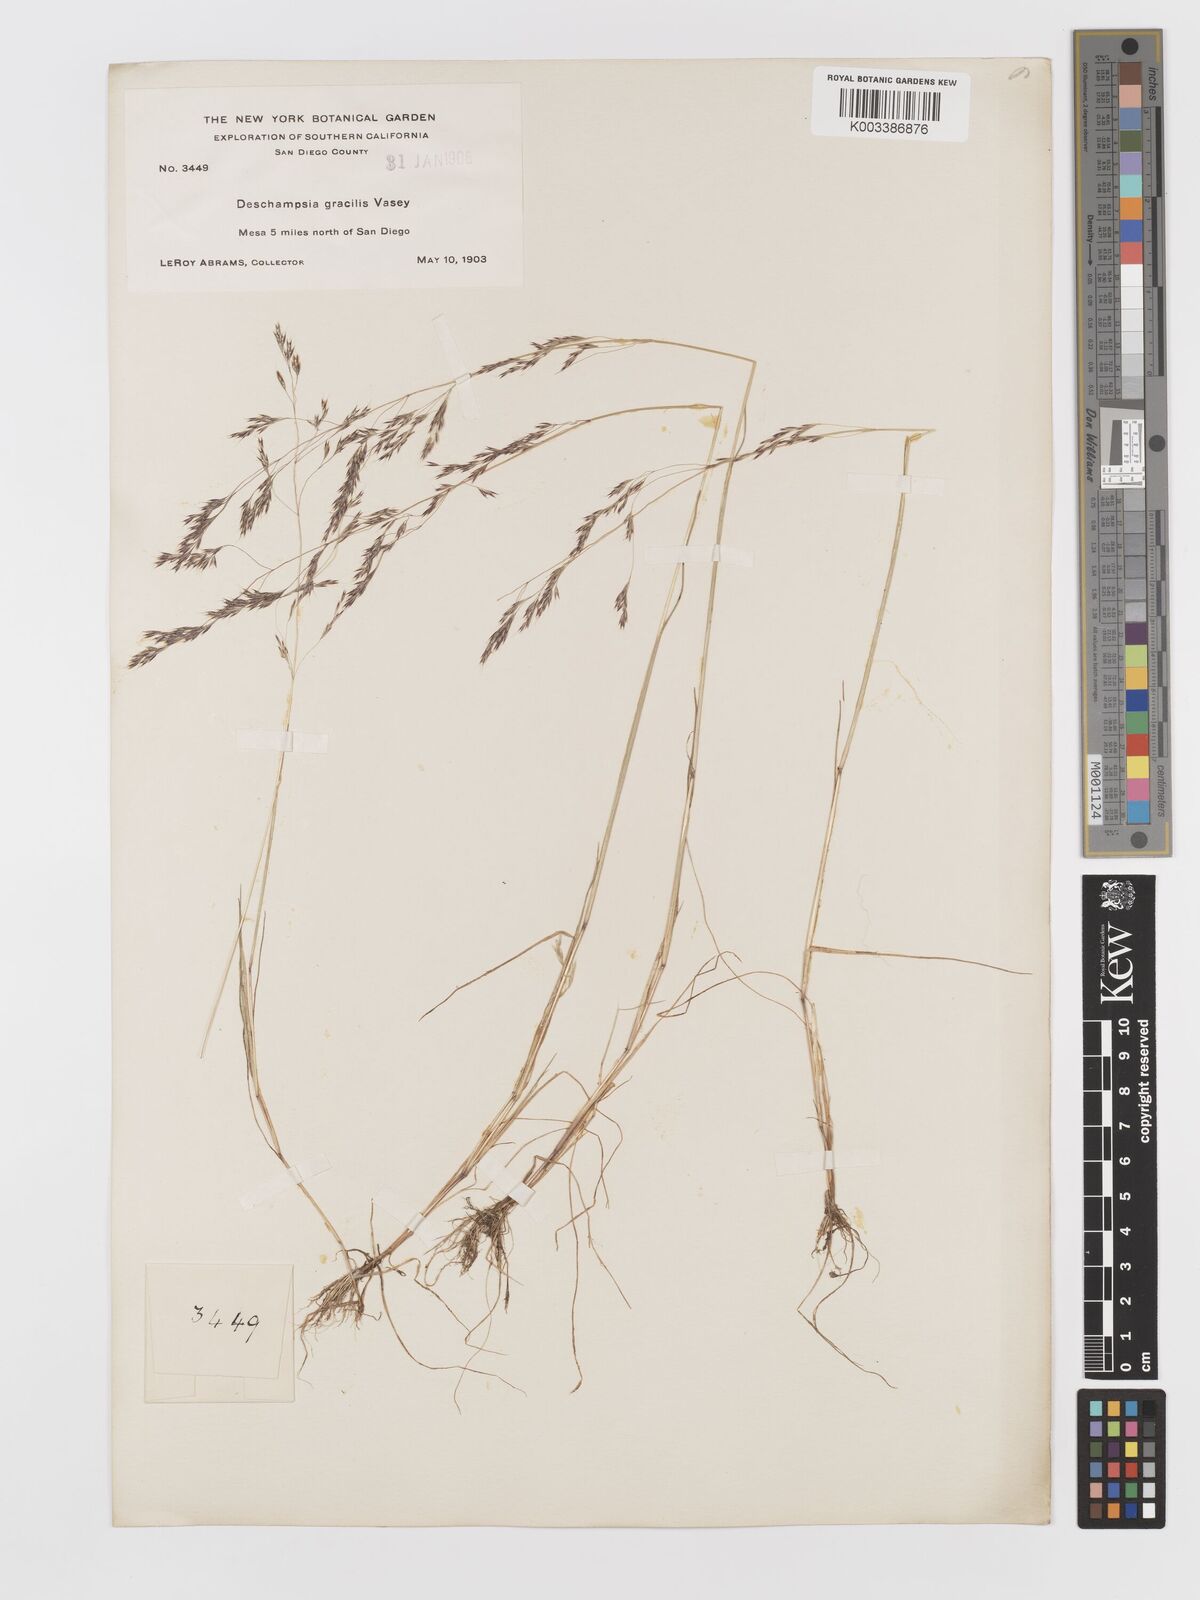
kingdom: Plantae
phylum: Tracheophyta
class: Liliopsida
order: Poales
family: Poaceae
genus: Deschampsia
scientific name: Deschampsia danthonioides
